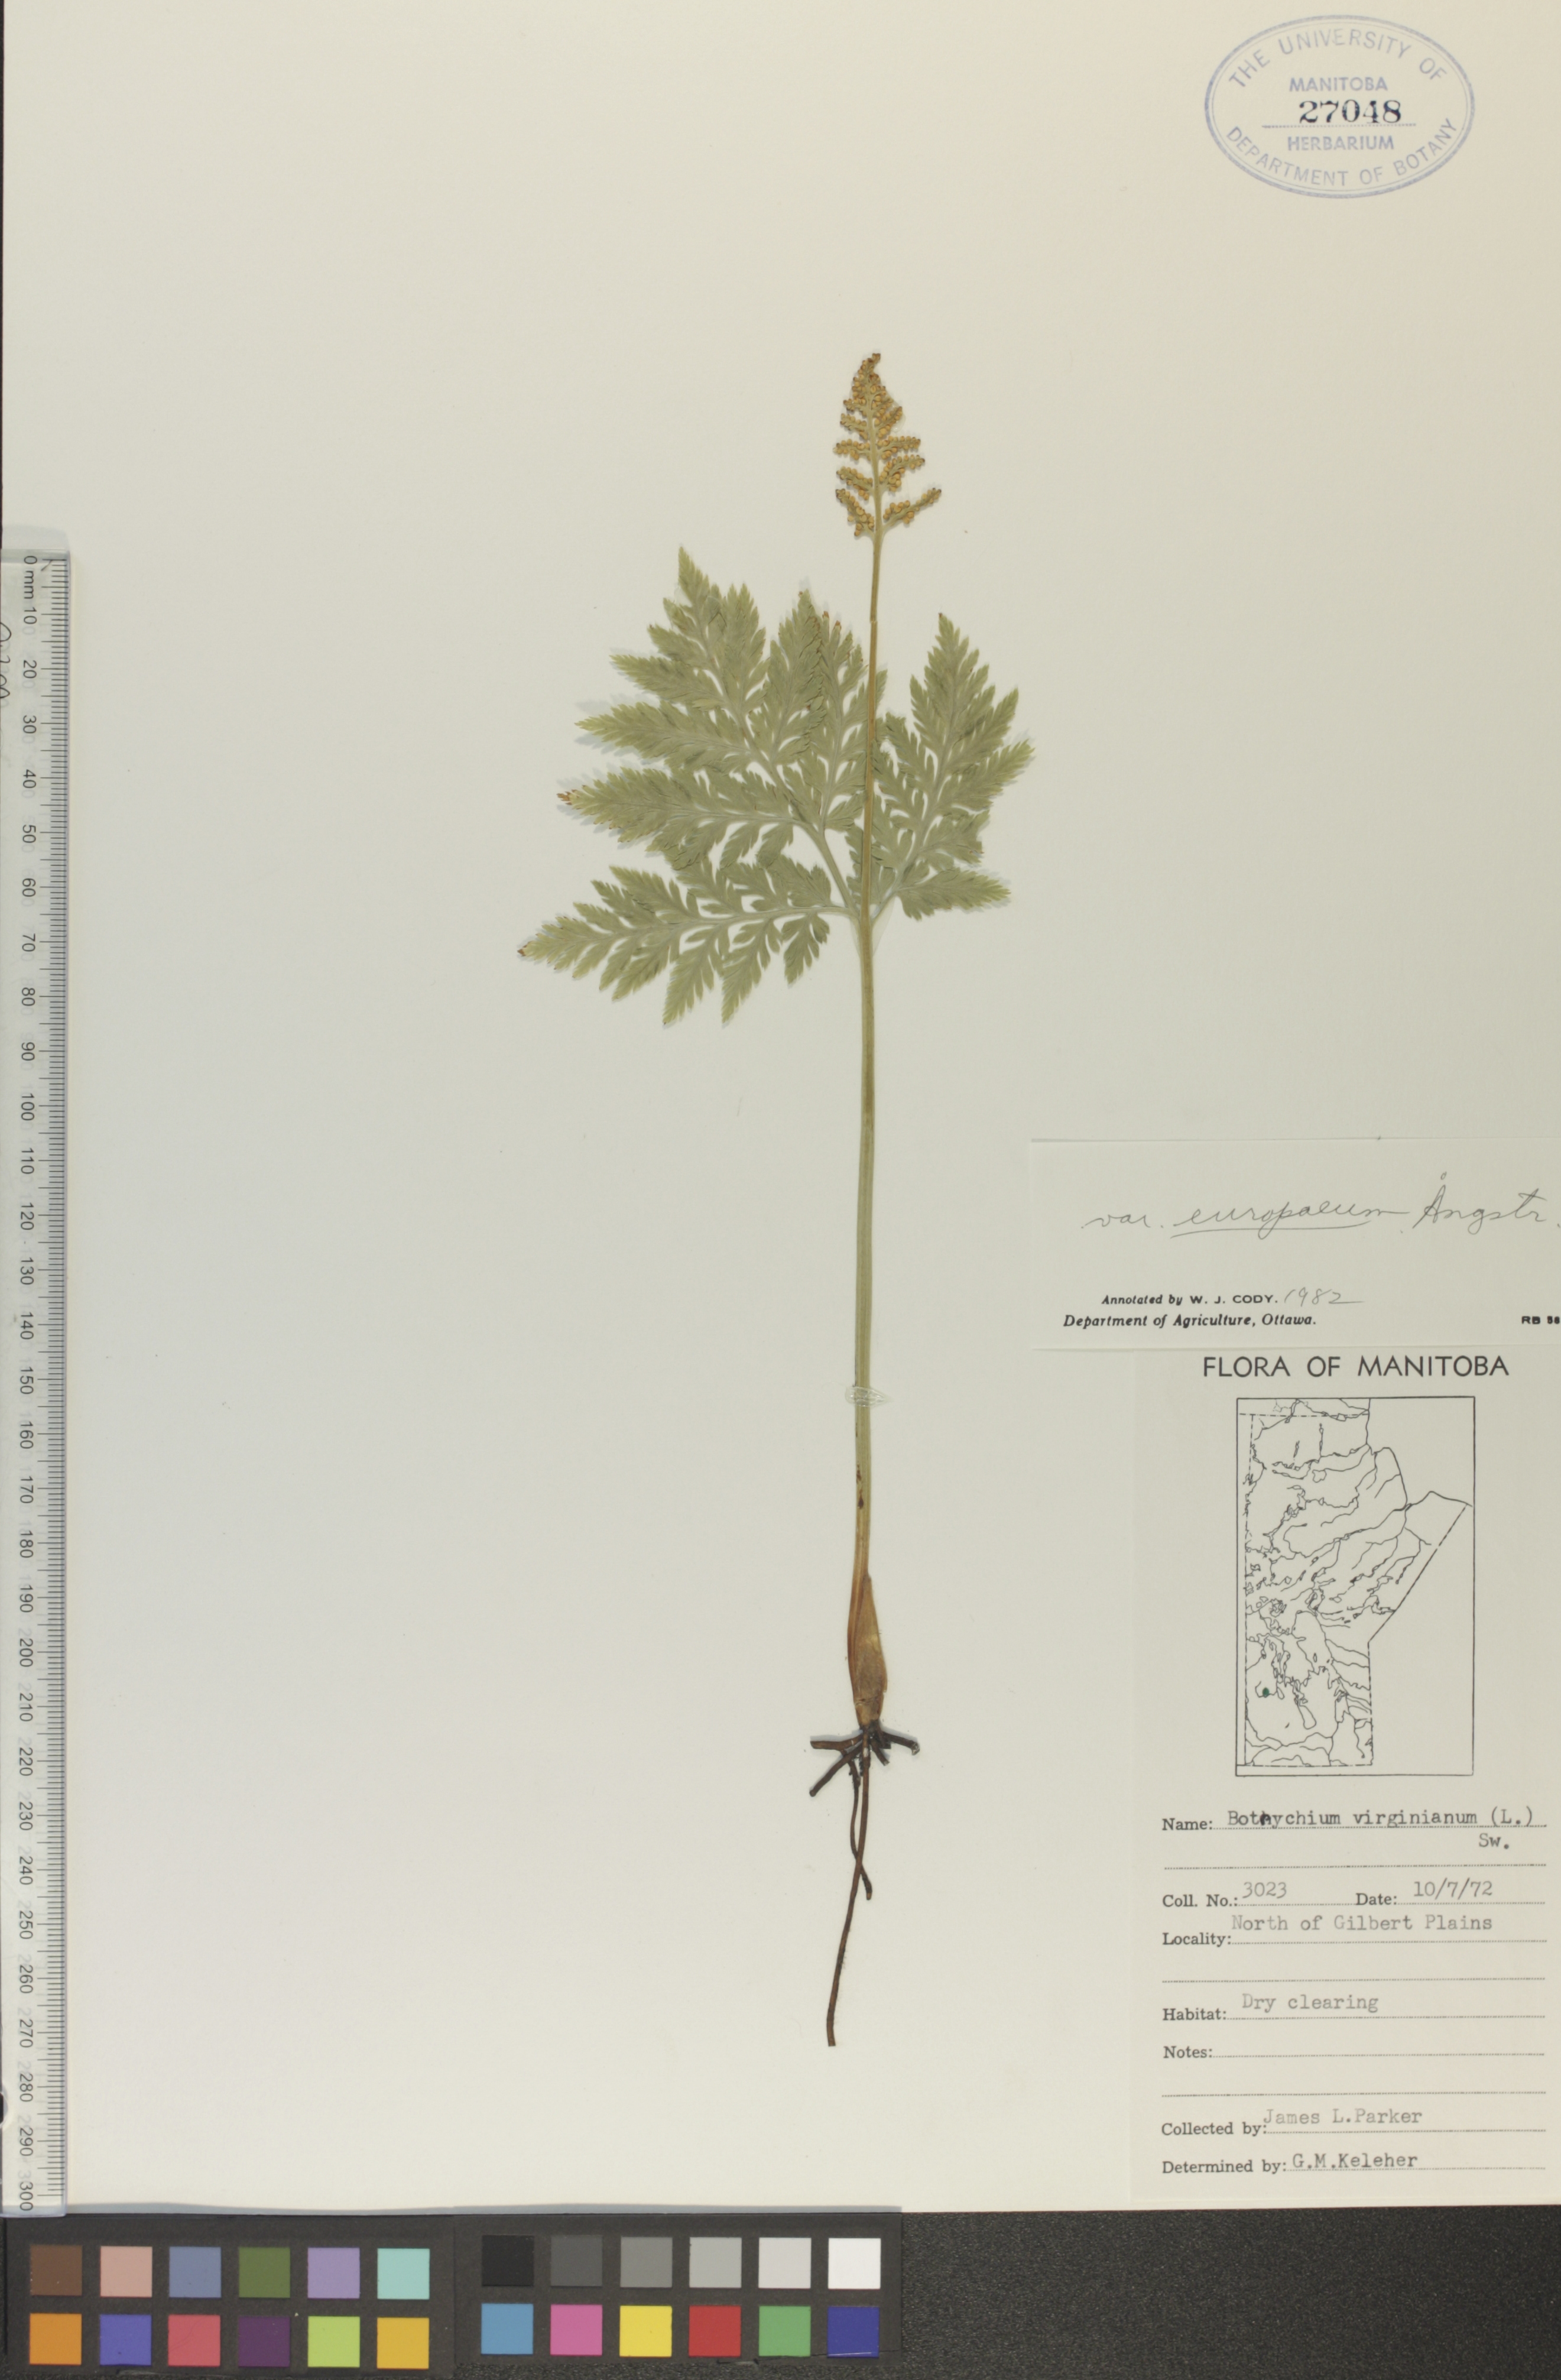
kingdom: Plantae
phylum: Tracheophyta
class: Polypodiopsida
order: Ophioglossales
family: Ophioglossaceae
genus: Botrypus
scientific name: Botrypus virginianus
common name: Common grapefern
